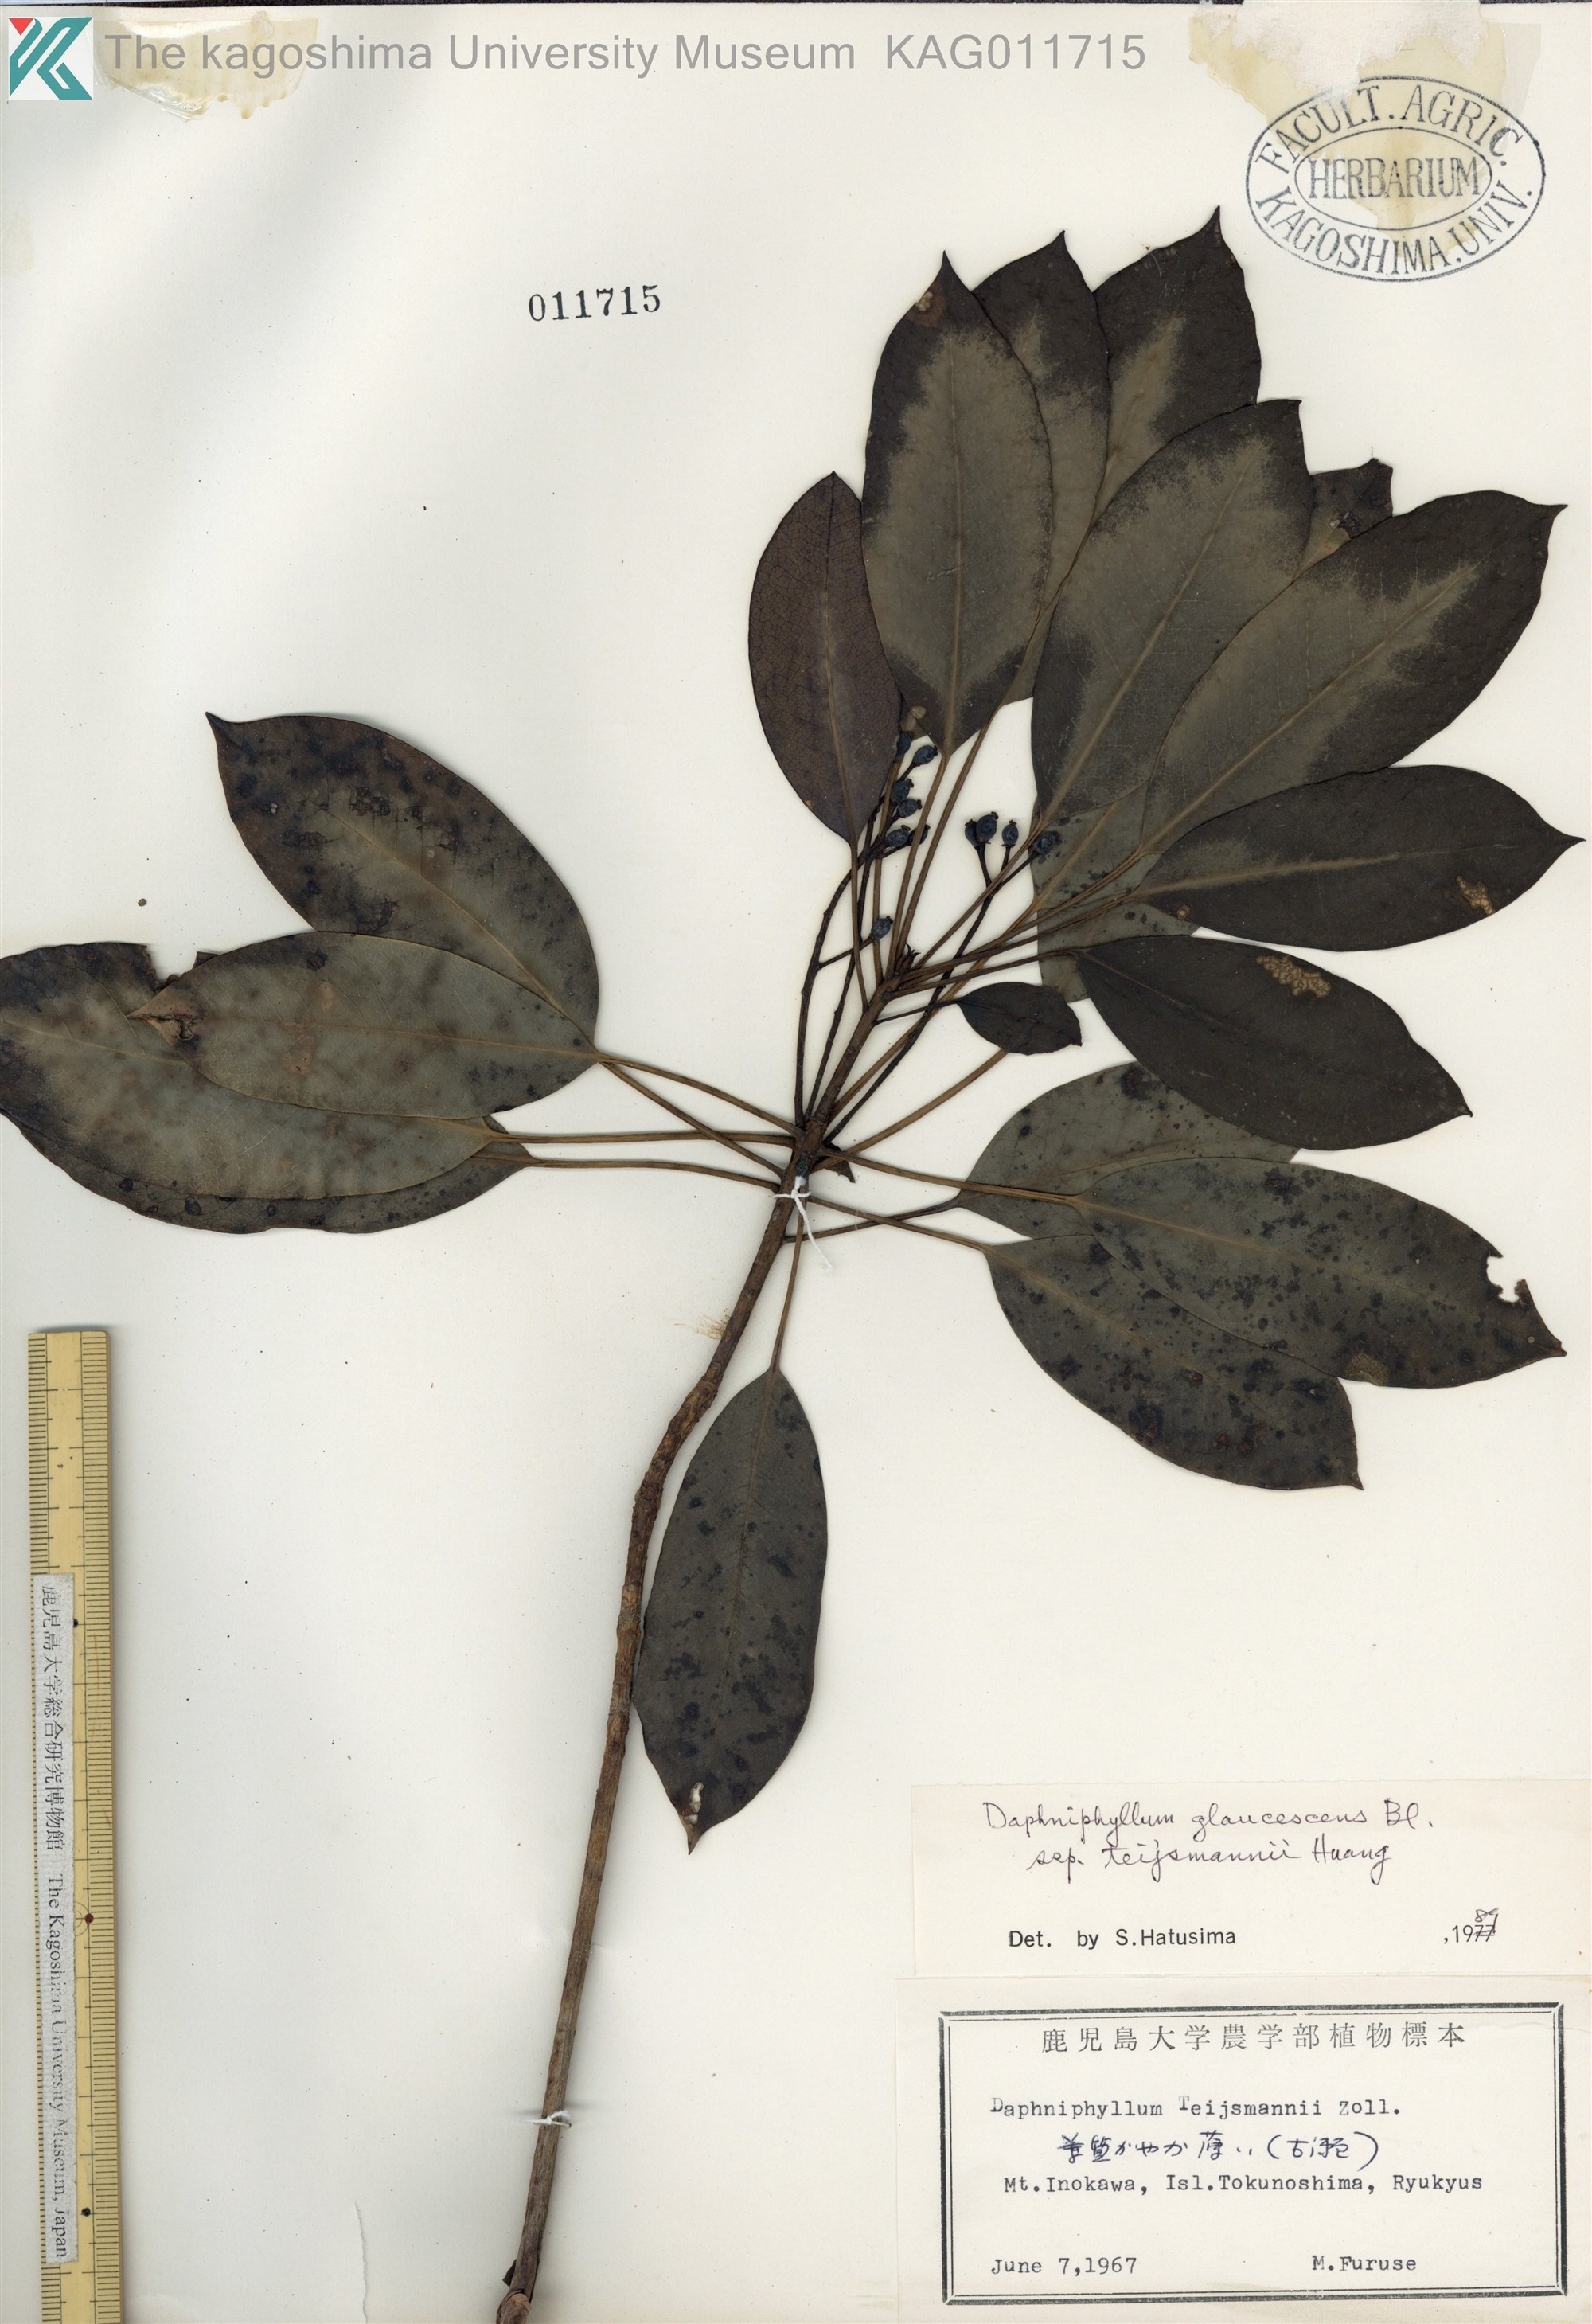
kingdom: Plantae
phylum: Tracheophyta
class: Magnoliopsida
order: Saxifragales
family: Daphniphyllaceae
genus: Daphniphyllum
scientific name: Daphniphyllum teijsmannii
